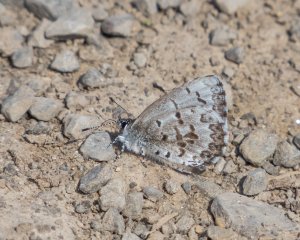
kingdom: Animalia
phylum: Arthropoda
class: Insecta
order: Lepidoptera
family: Lycaenidae
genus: Celastrina
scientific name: Celastrina lucia
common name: Northern Spring Azure
